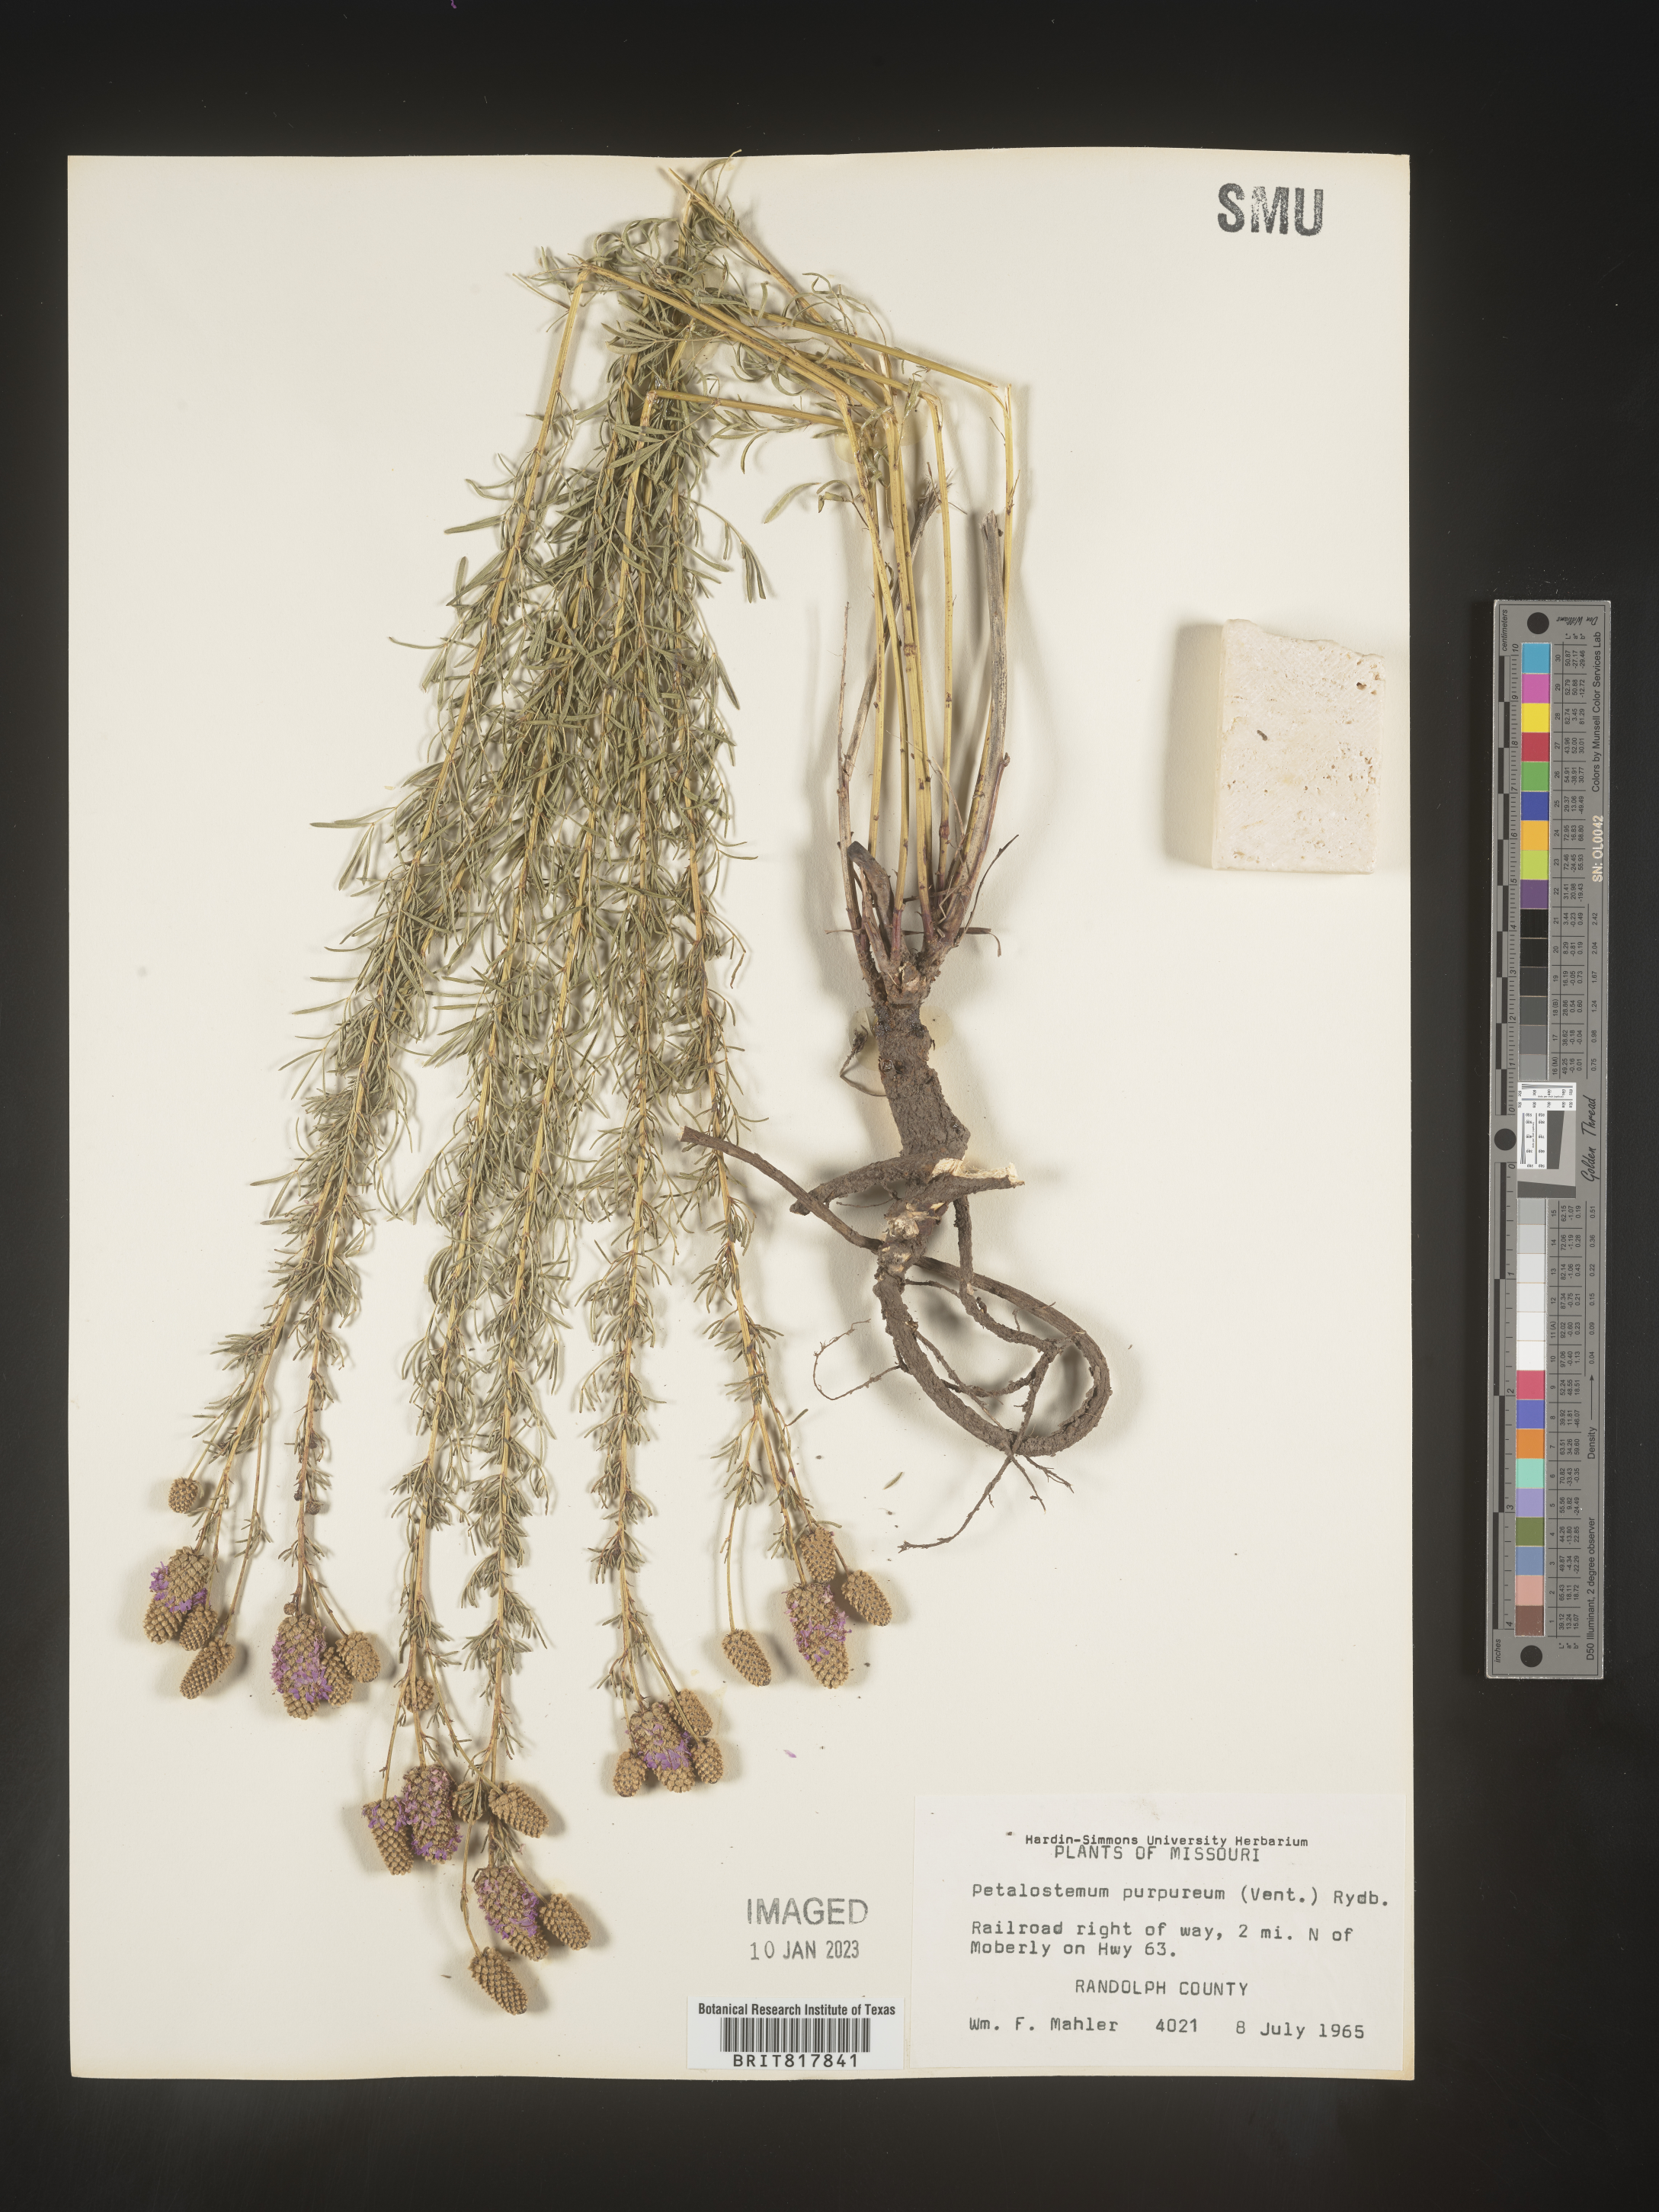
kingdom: Plantae
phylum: Tracheophyta
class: Magnoliopsida
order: Fabales
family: Fabaceae
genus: Dalea
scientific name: Dalea purpurea
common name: Purple prairie-clover
